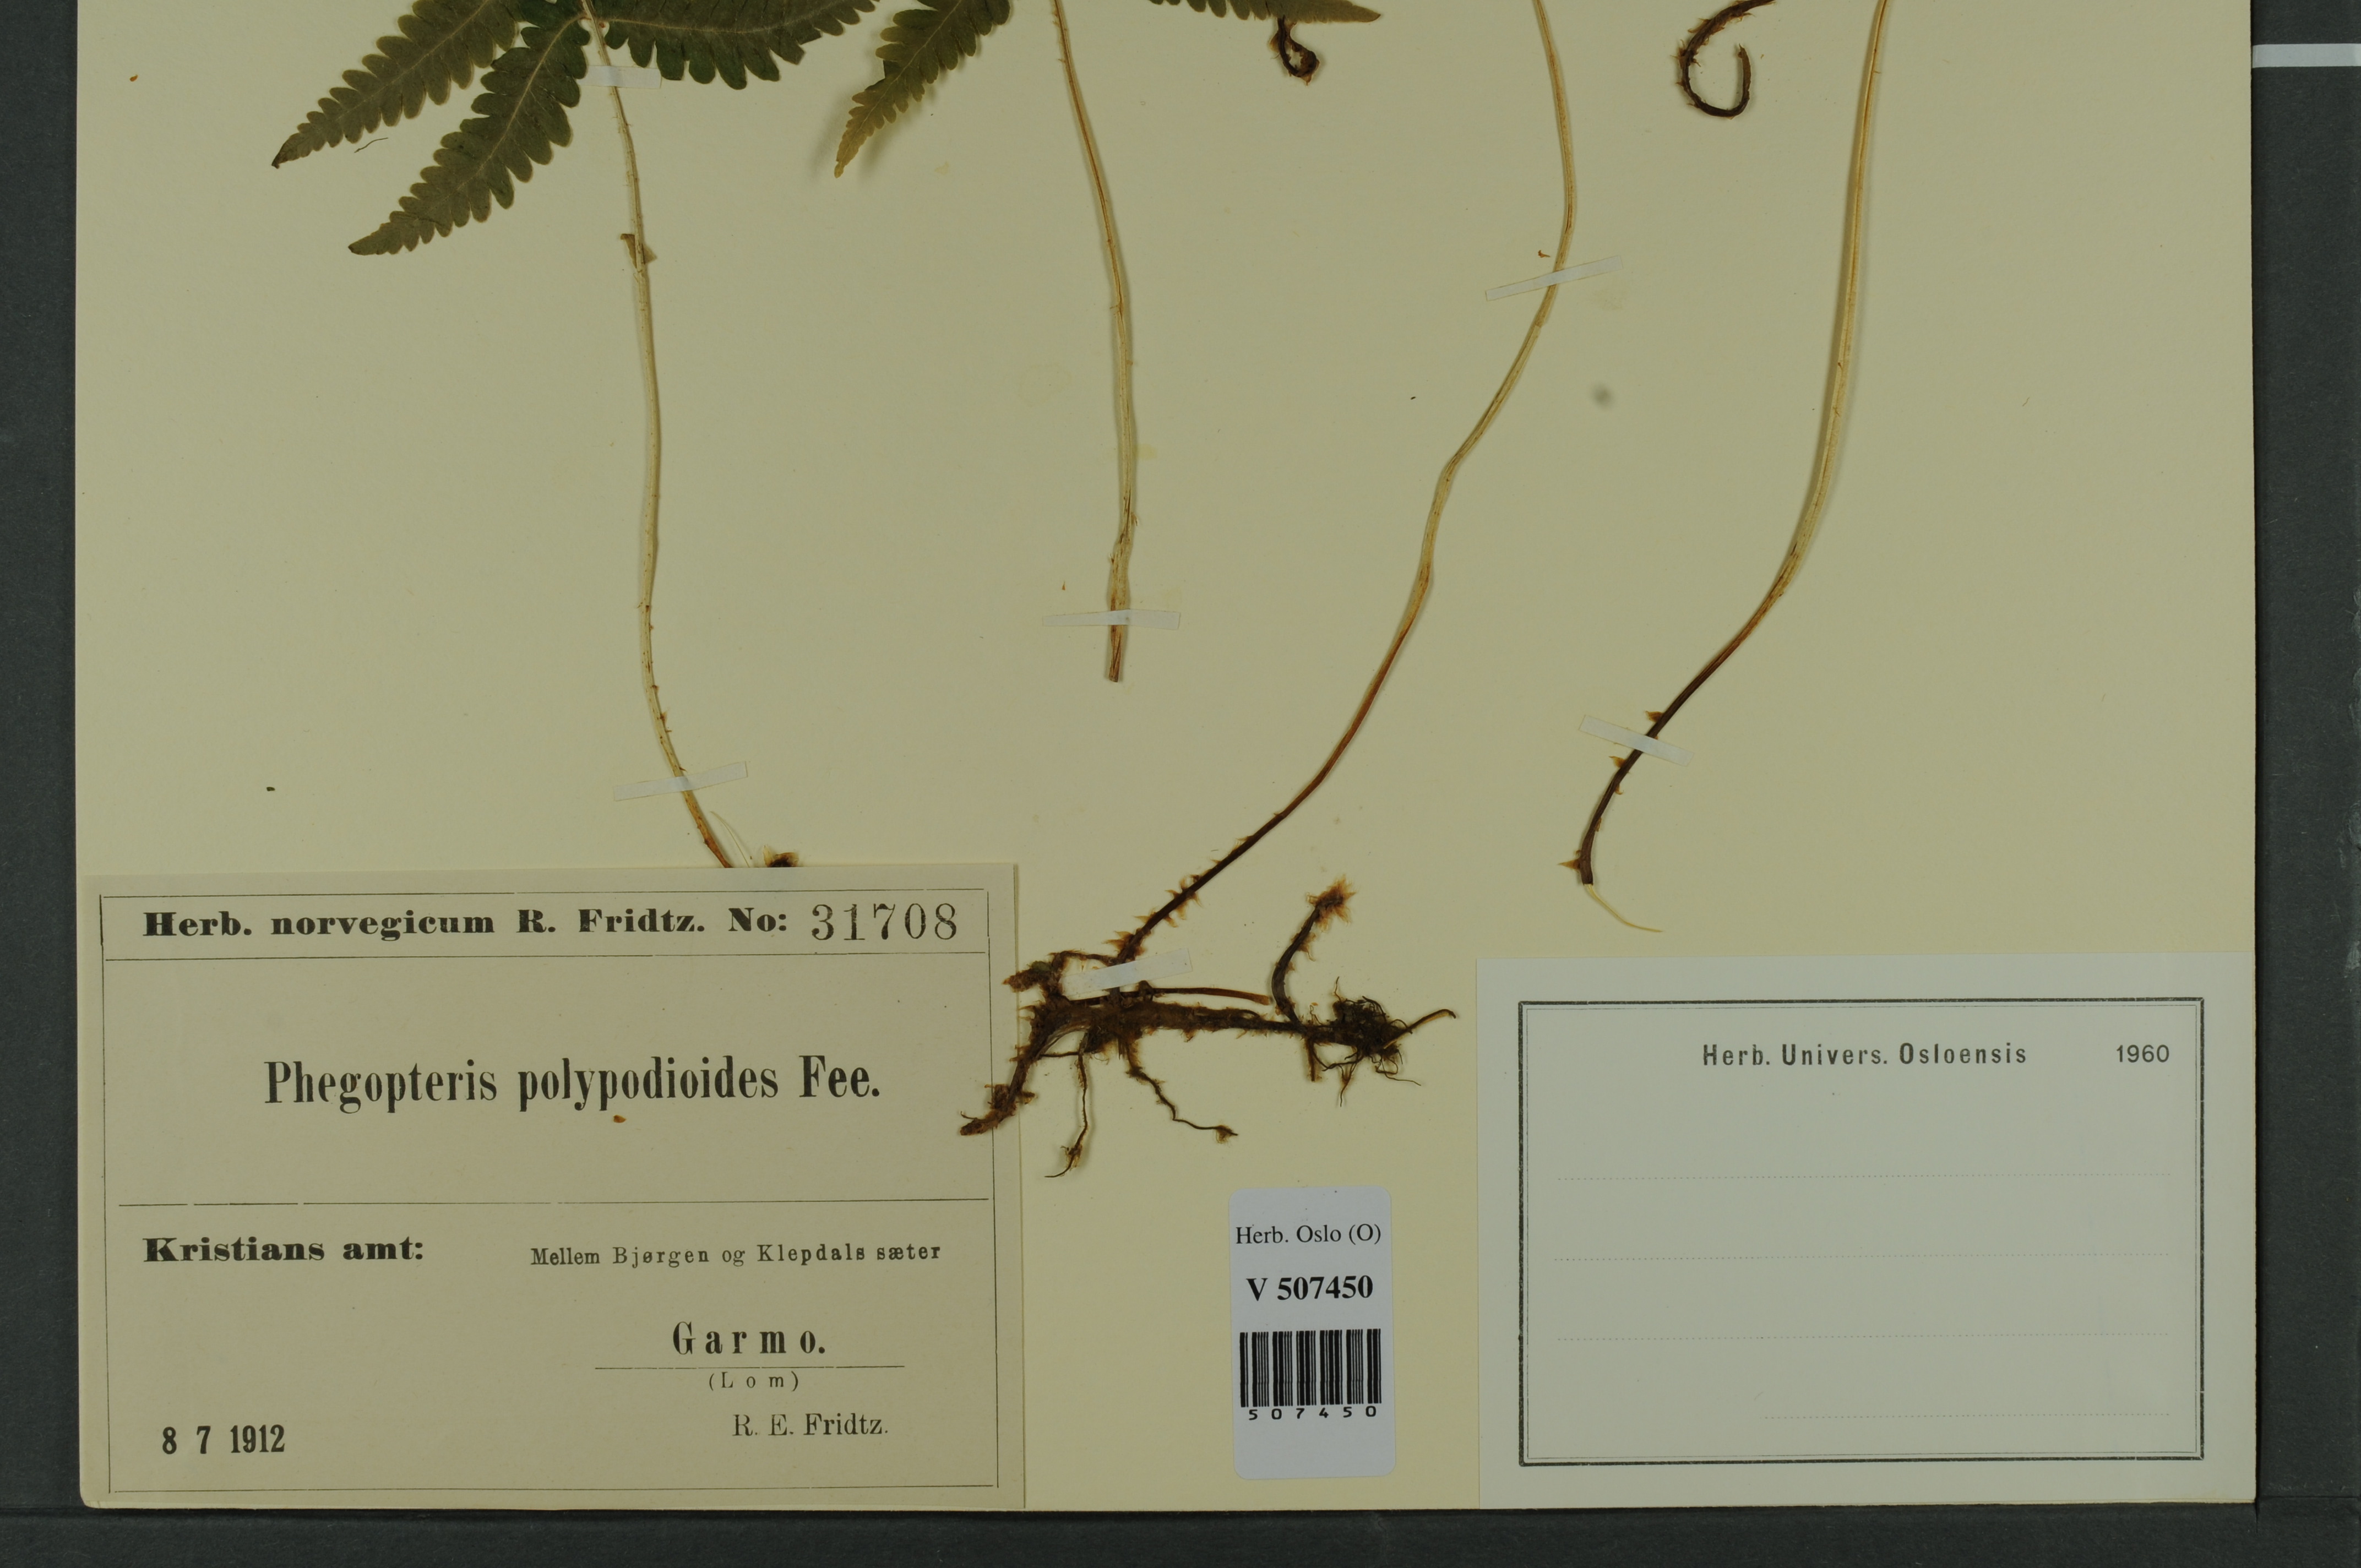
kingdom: Plantae
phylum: Tracheophyta
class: Polypodiopsida
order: Polypodiales
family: Thelypteridaceae
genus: Phegopteris
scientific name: Phegopteris connectilis
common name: Beech fern
